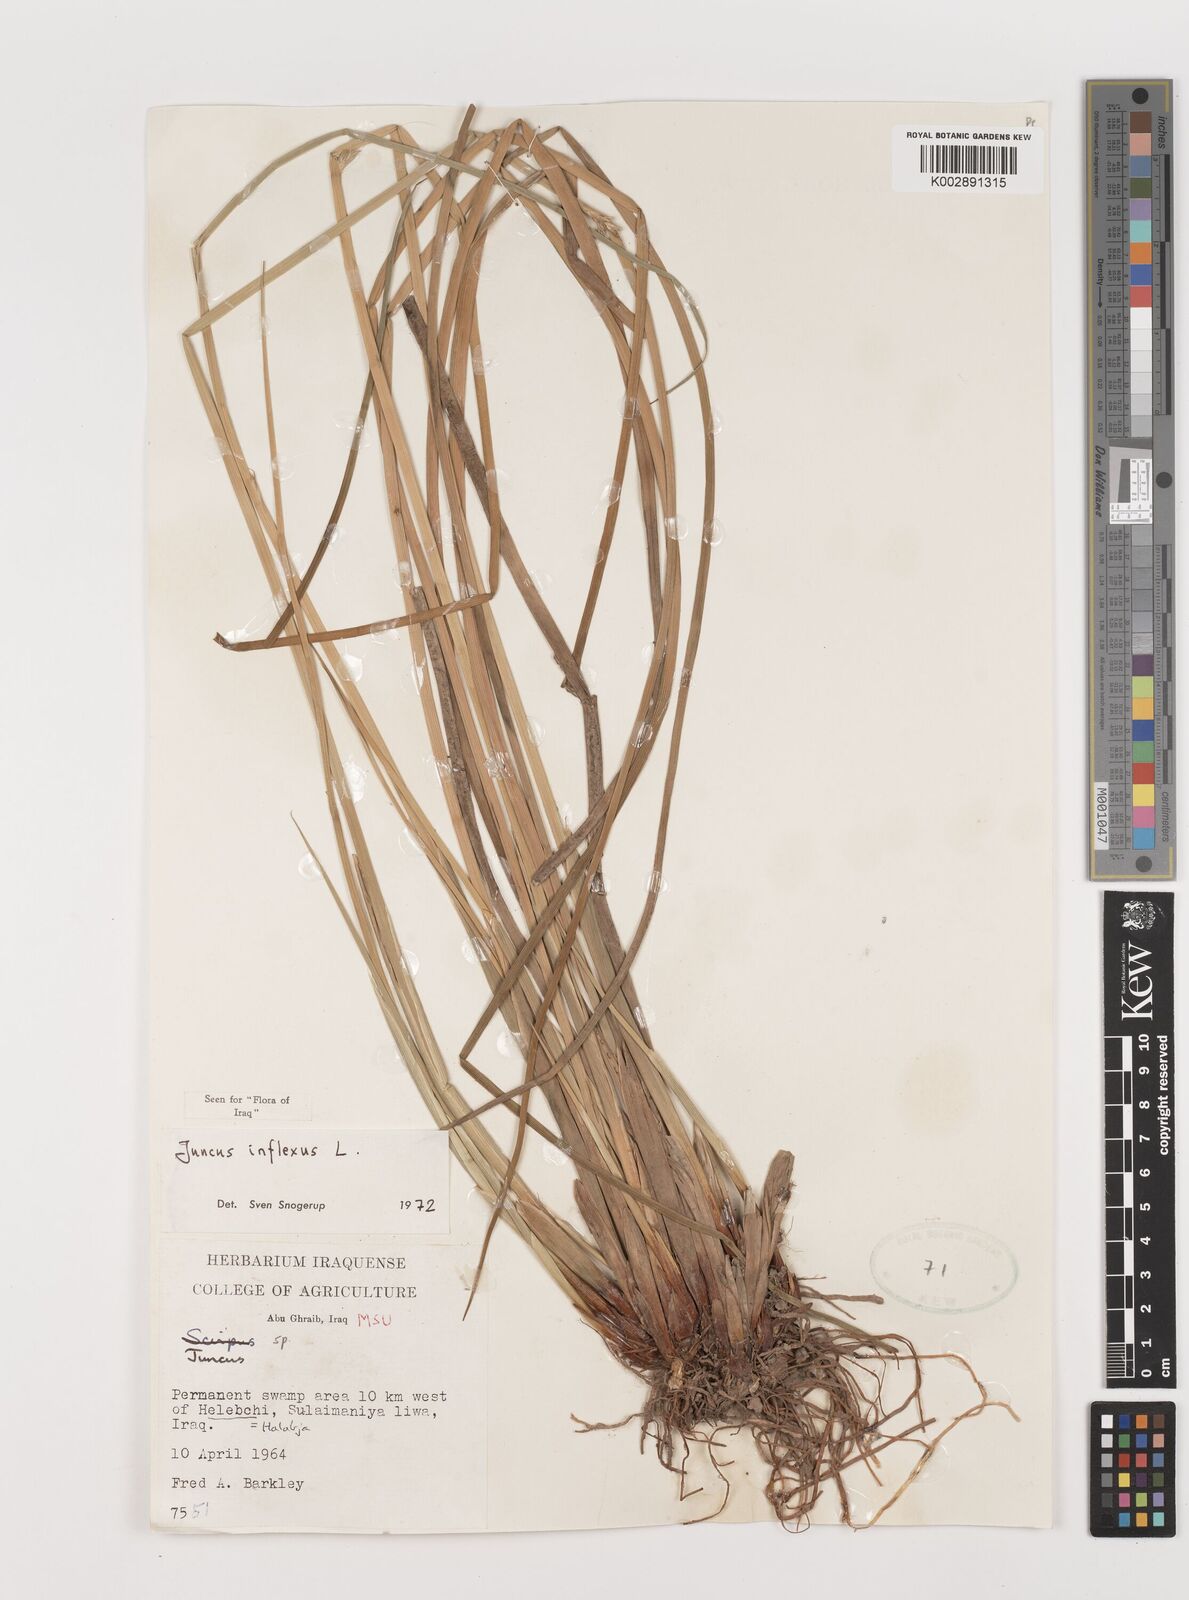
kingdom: Plantae
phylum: Tracheophyta
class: Liliopsida
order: Poales
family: Juncaceae
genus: Juncus
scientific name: Juncus inflexus
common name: Hard rush
